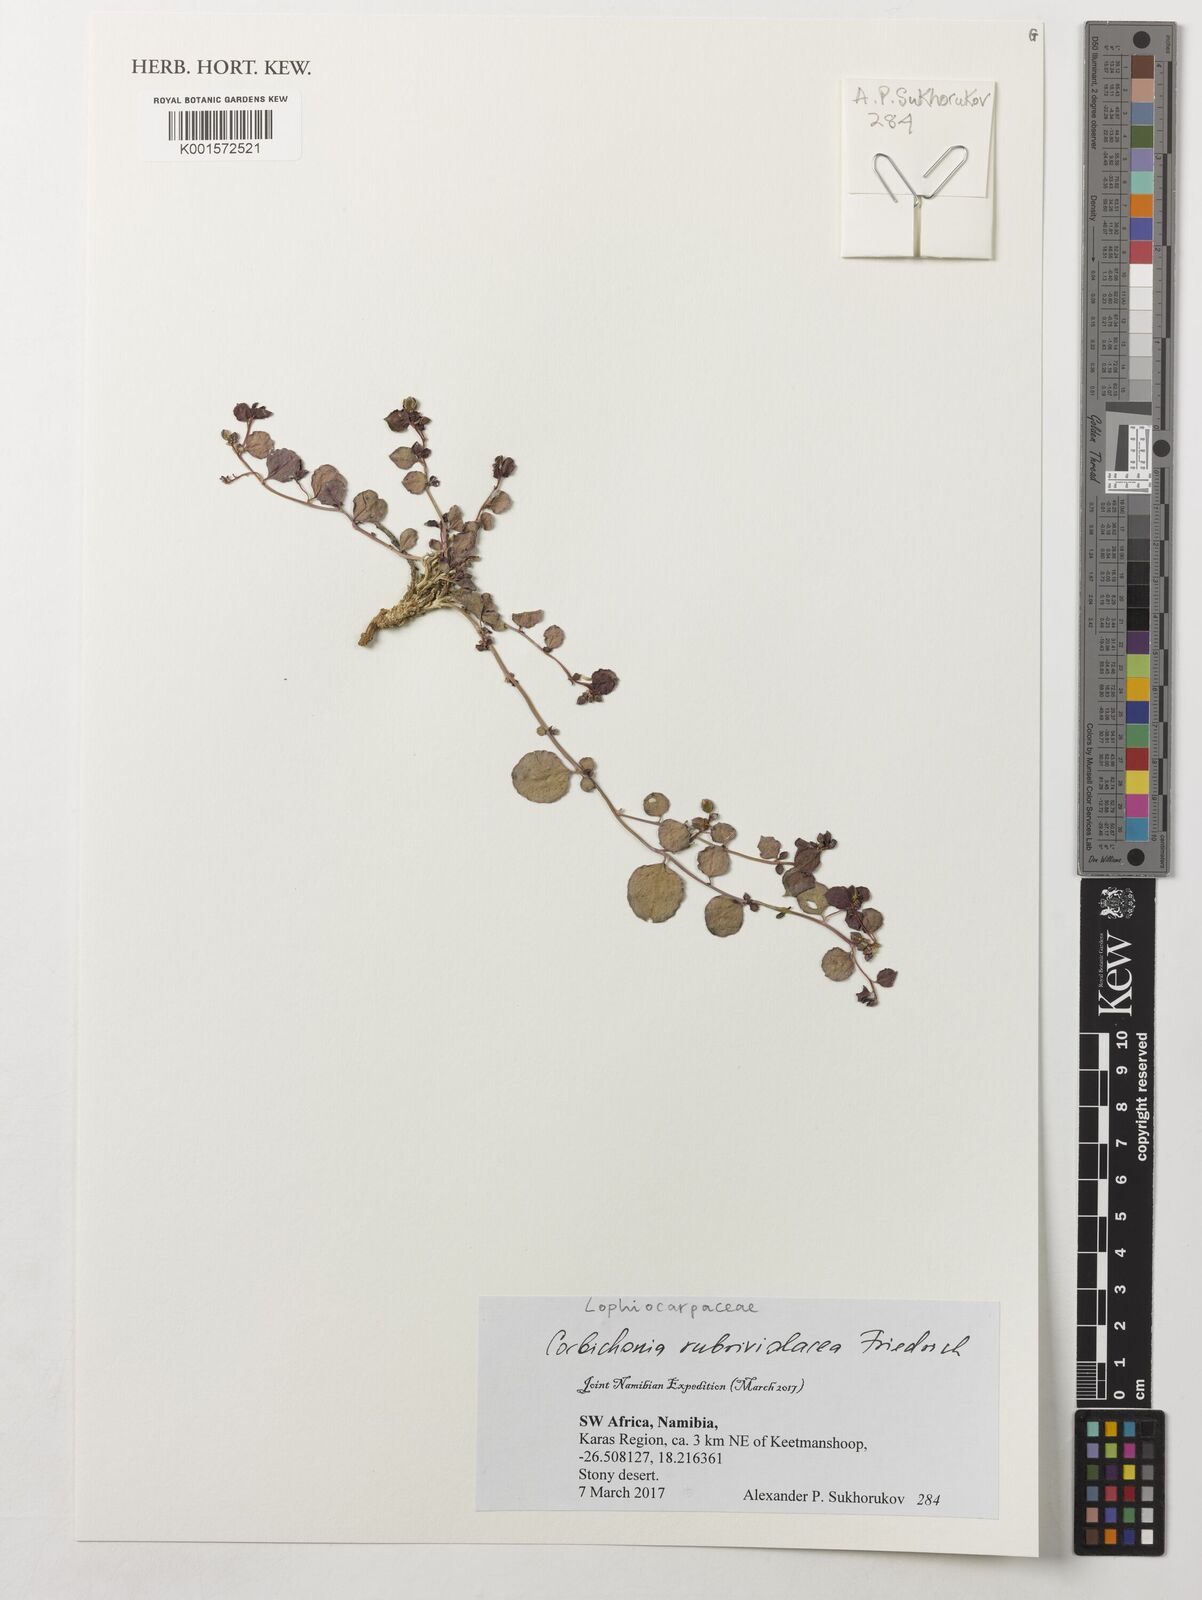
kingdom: Plantae
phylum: Tracheophyta
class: Magnoliopsida
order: Caryophyllales
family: Corbichoniaceae
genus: Corbichonia
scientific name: Corbichonia rubriviolacea
